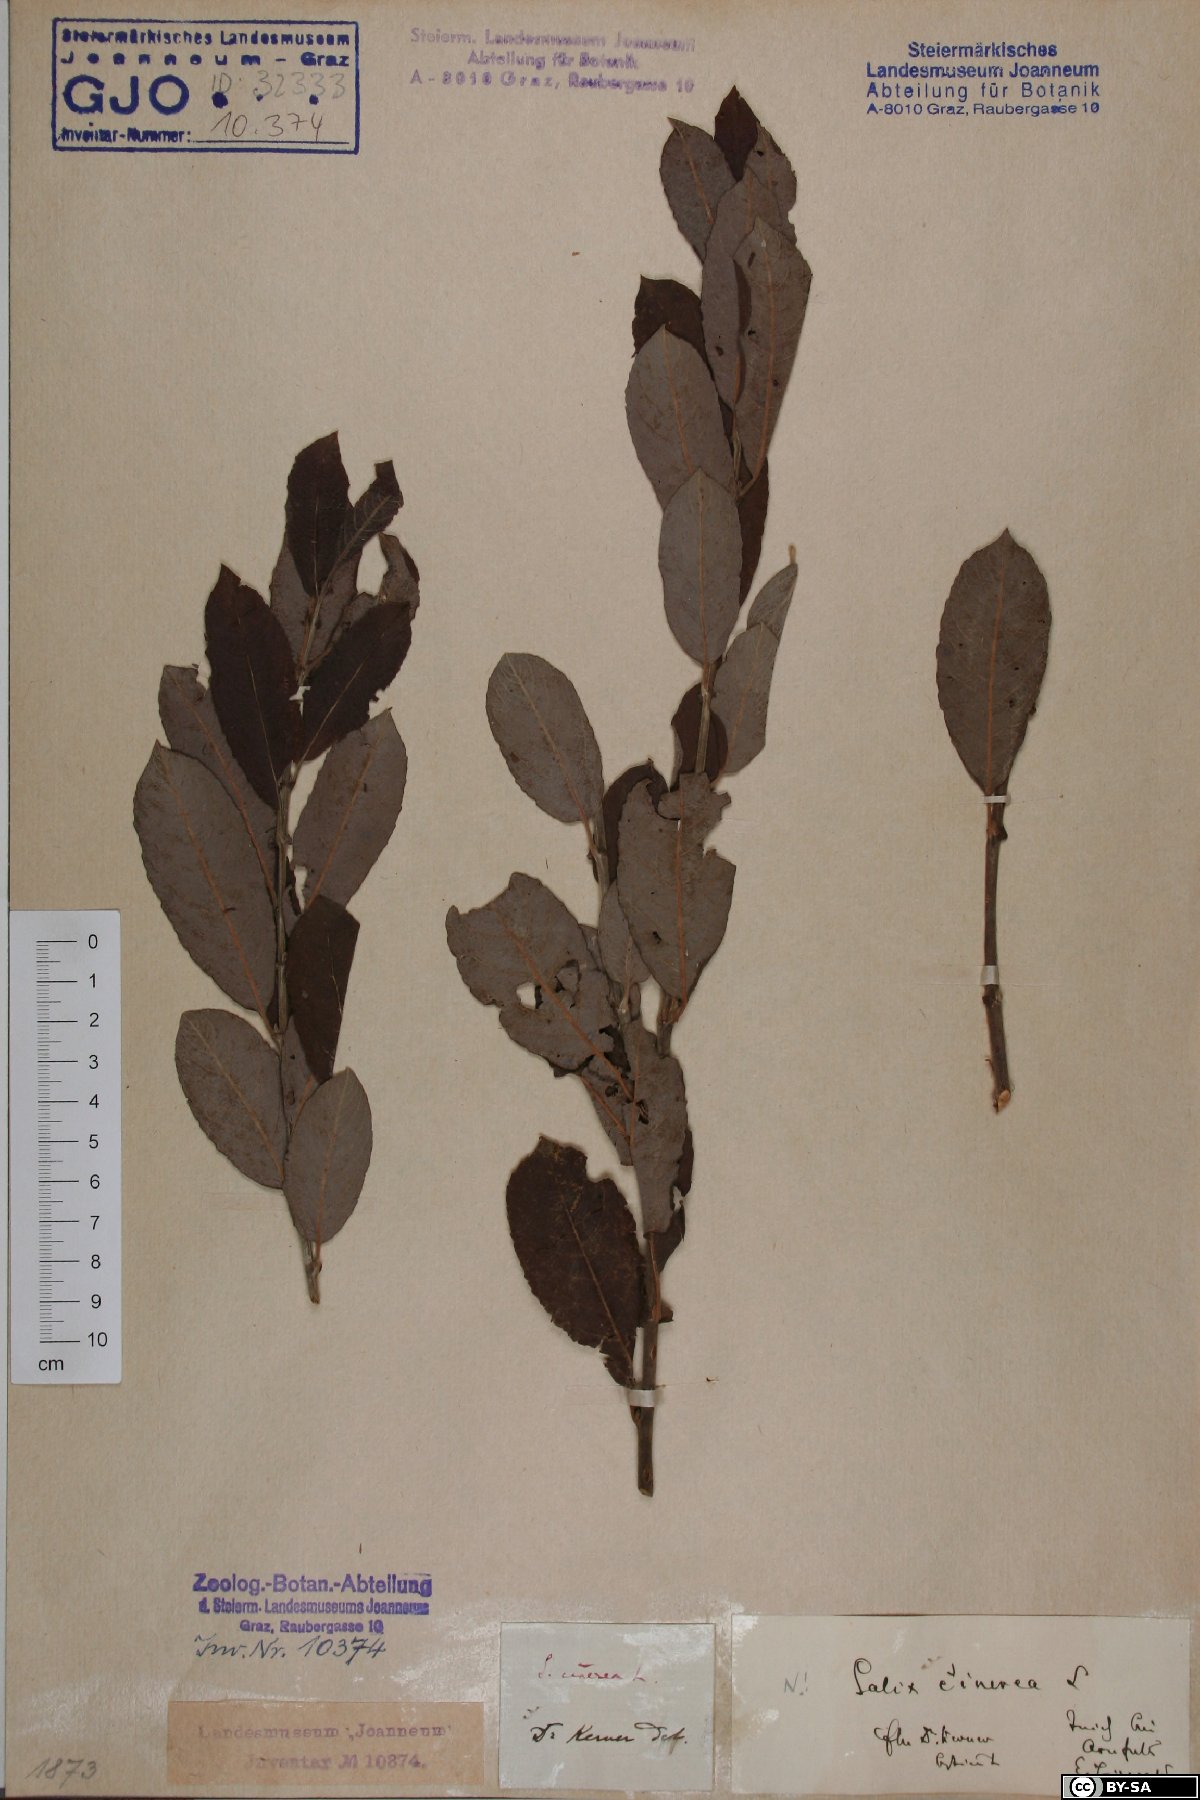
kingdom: Plantae
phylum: Tracheophyta
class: Magnoliopsida
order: Malpighiales
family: Salicaceae
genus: Salix
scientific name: Salix cinerea
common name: Common sallow
